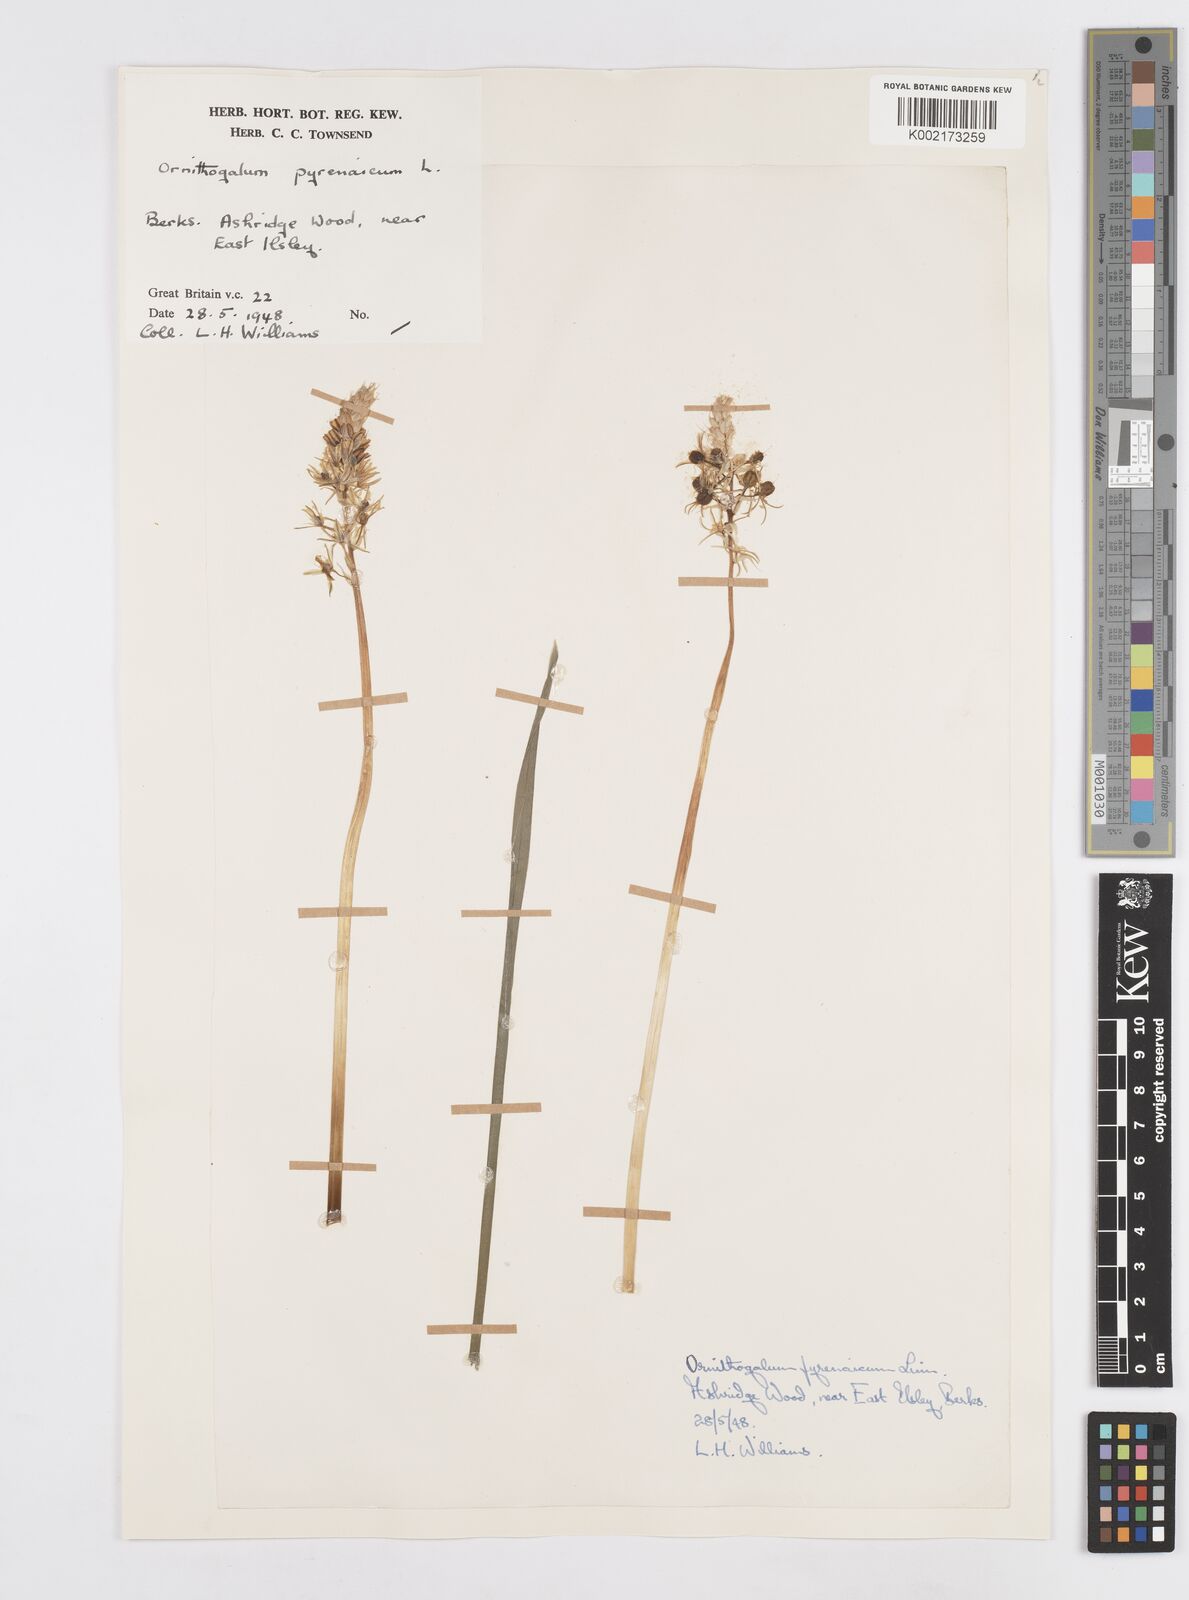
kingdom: Plantae
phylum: Tracheophyta
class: Liliopsida
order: Asparagales
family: Asparagaceae
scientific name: Asparagaceae
